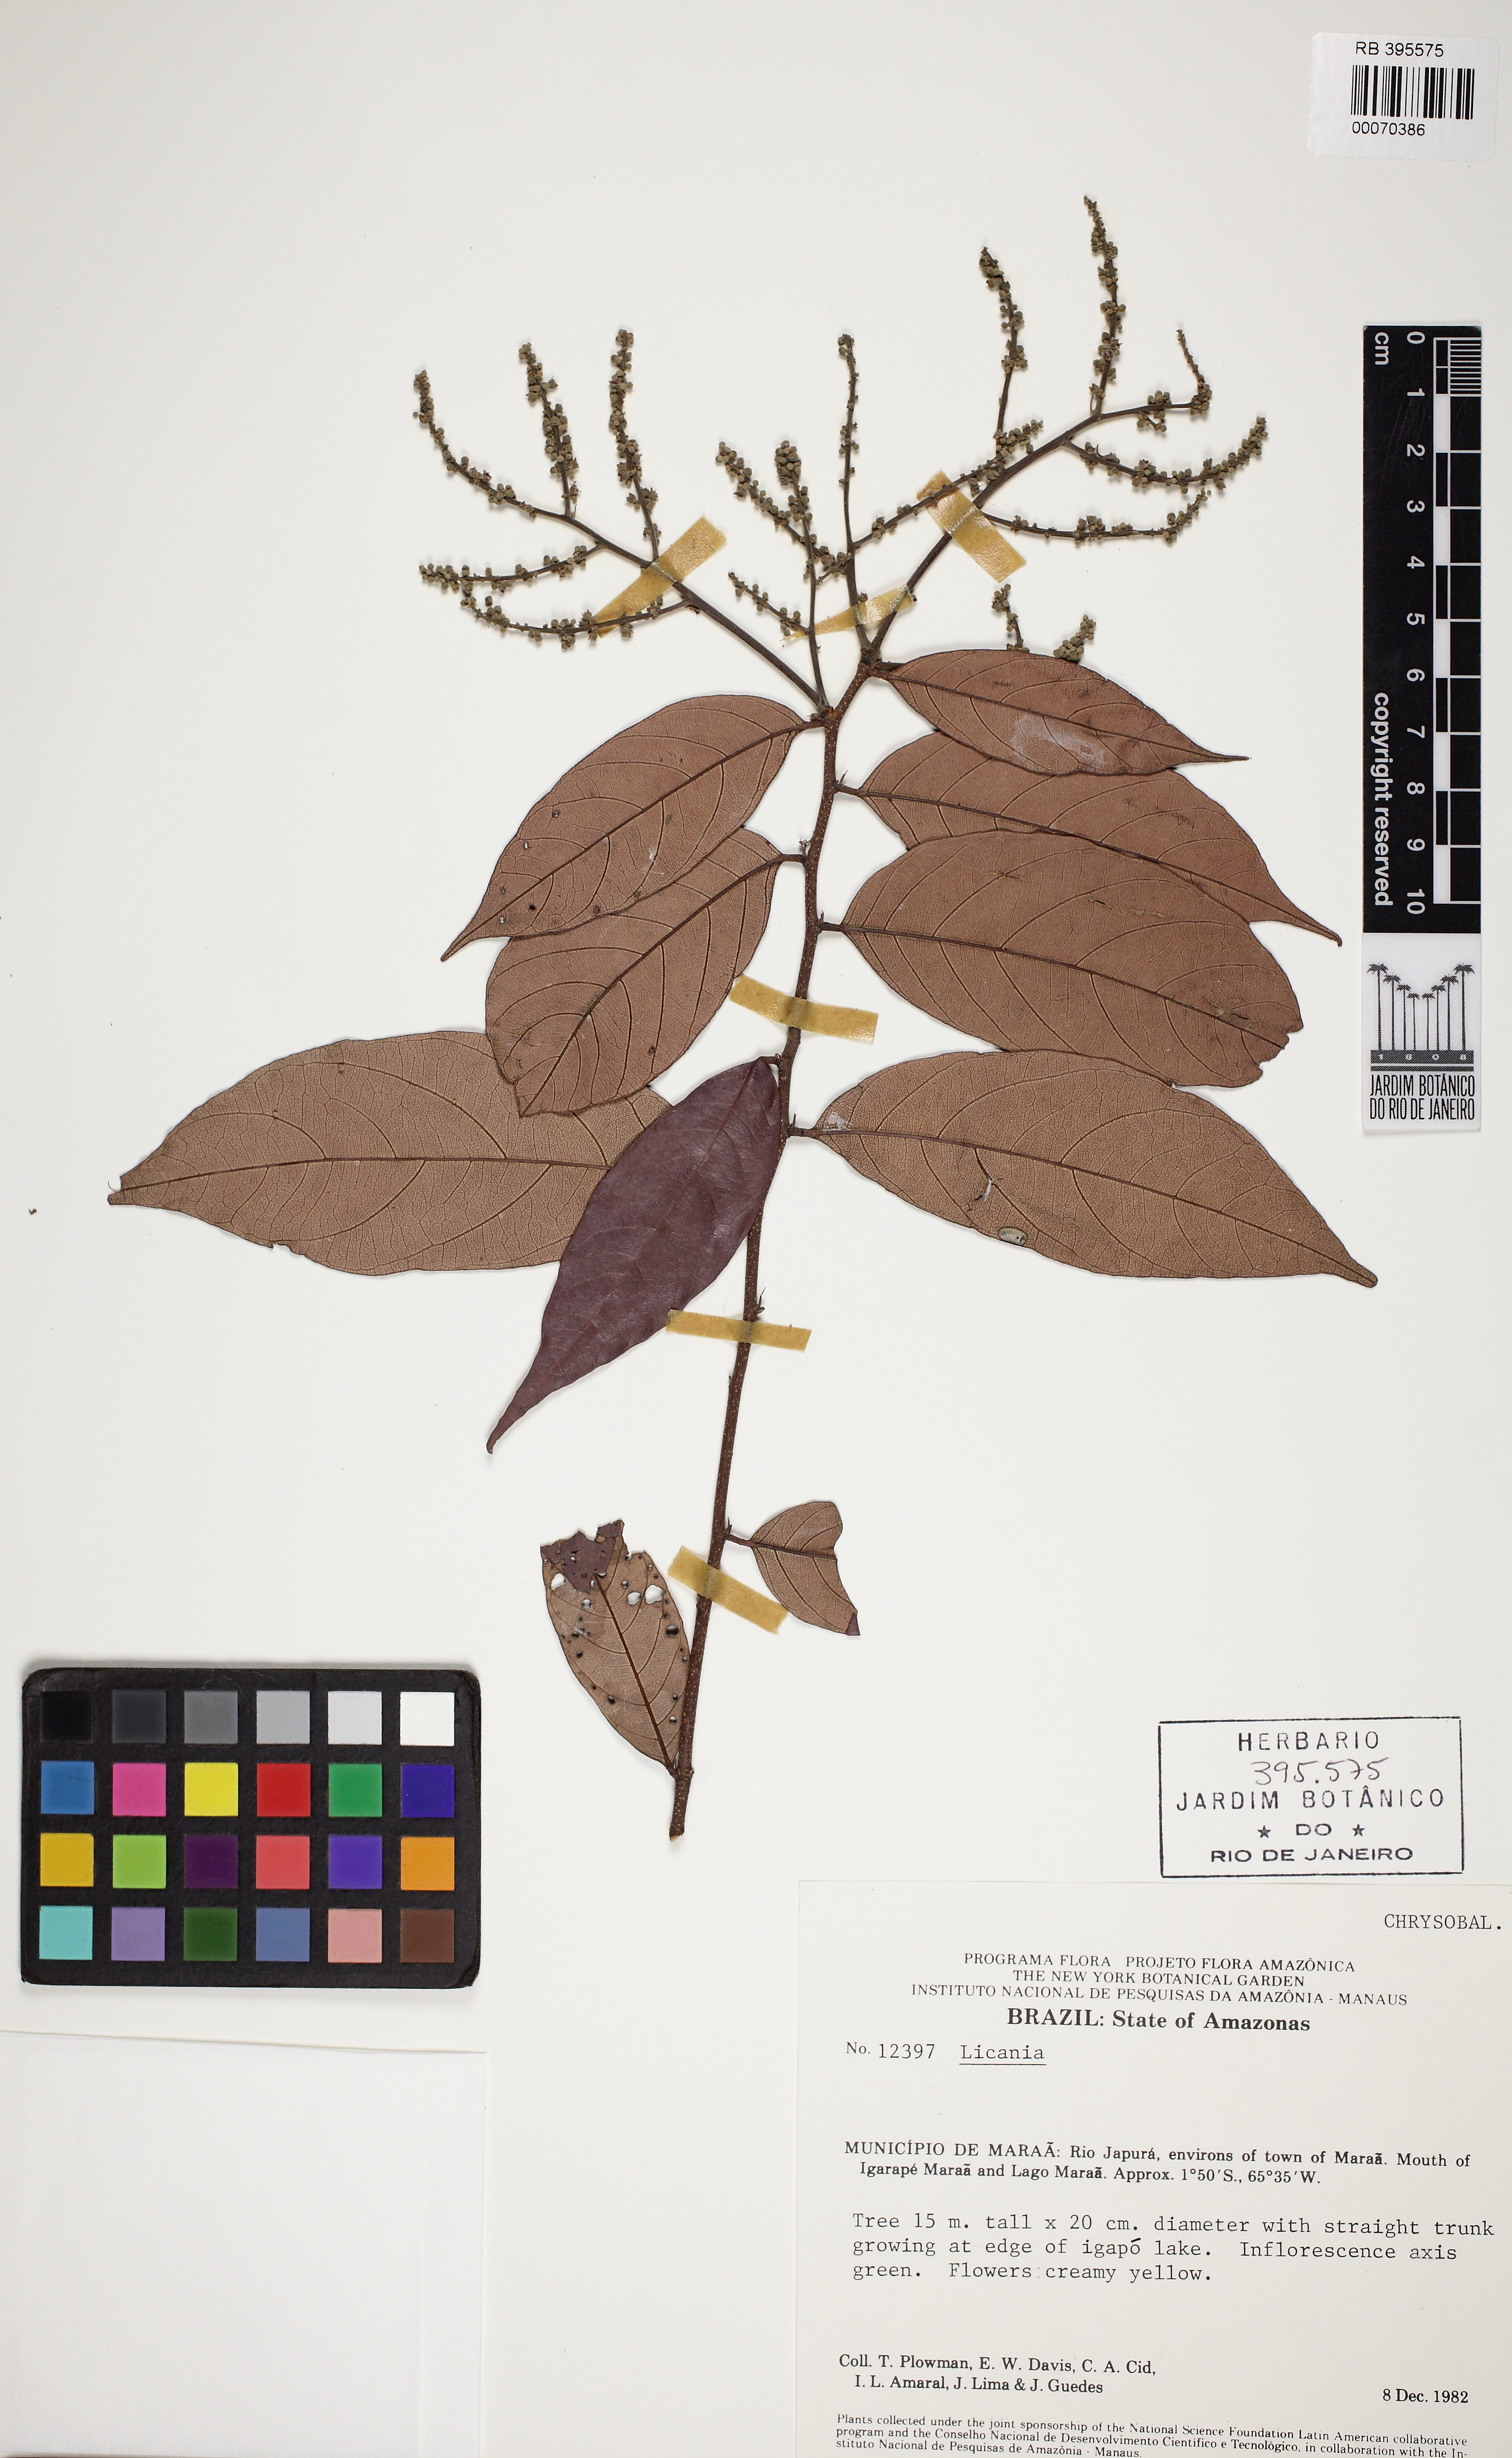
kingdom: Plantae
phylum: Tracheophyta
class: Magnoliopsida
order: Malpighiales
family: Chrysobalanaceae
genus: Licania
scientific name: Licania
